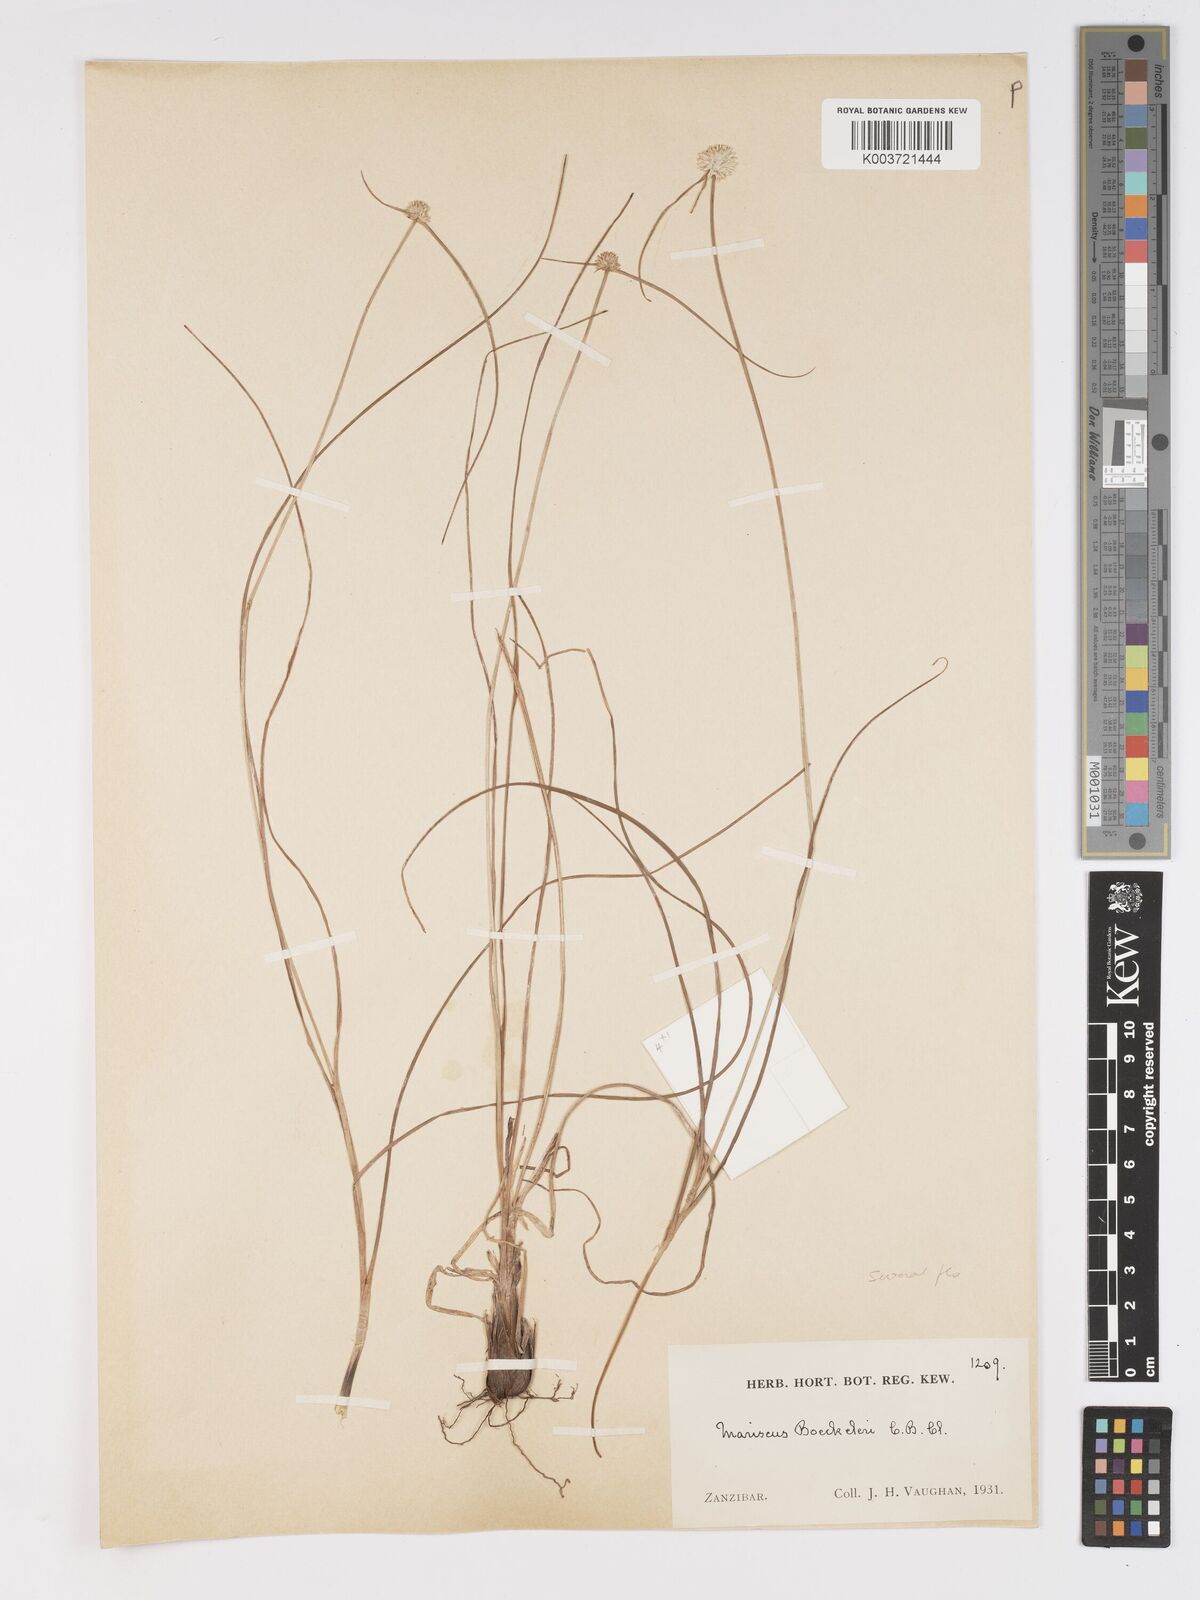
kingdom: Plantae
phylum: Tracheophyta
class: Liliopsida
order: Poales
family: Cyperaceae
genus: Cyperus
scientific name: Cyperus mollipes
